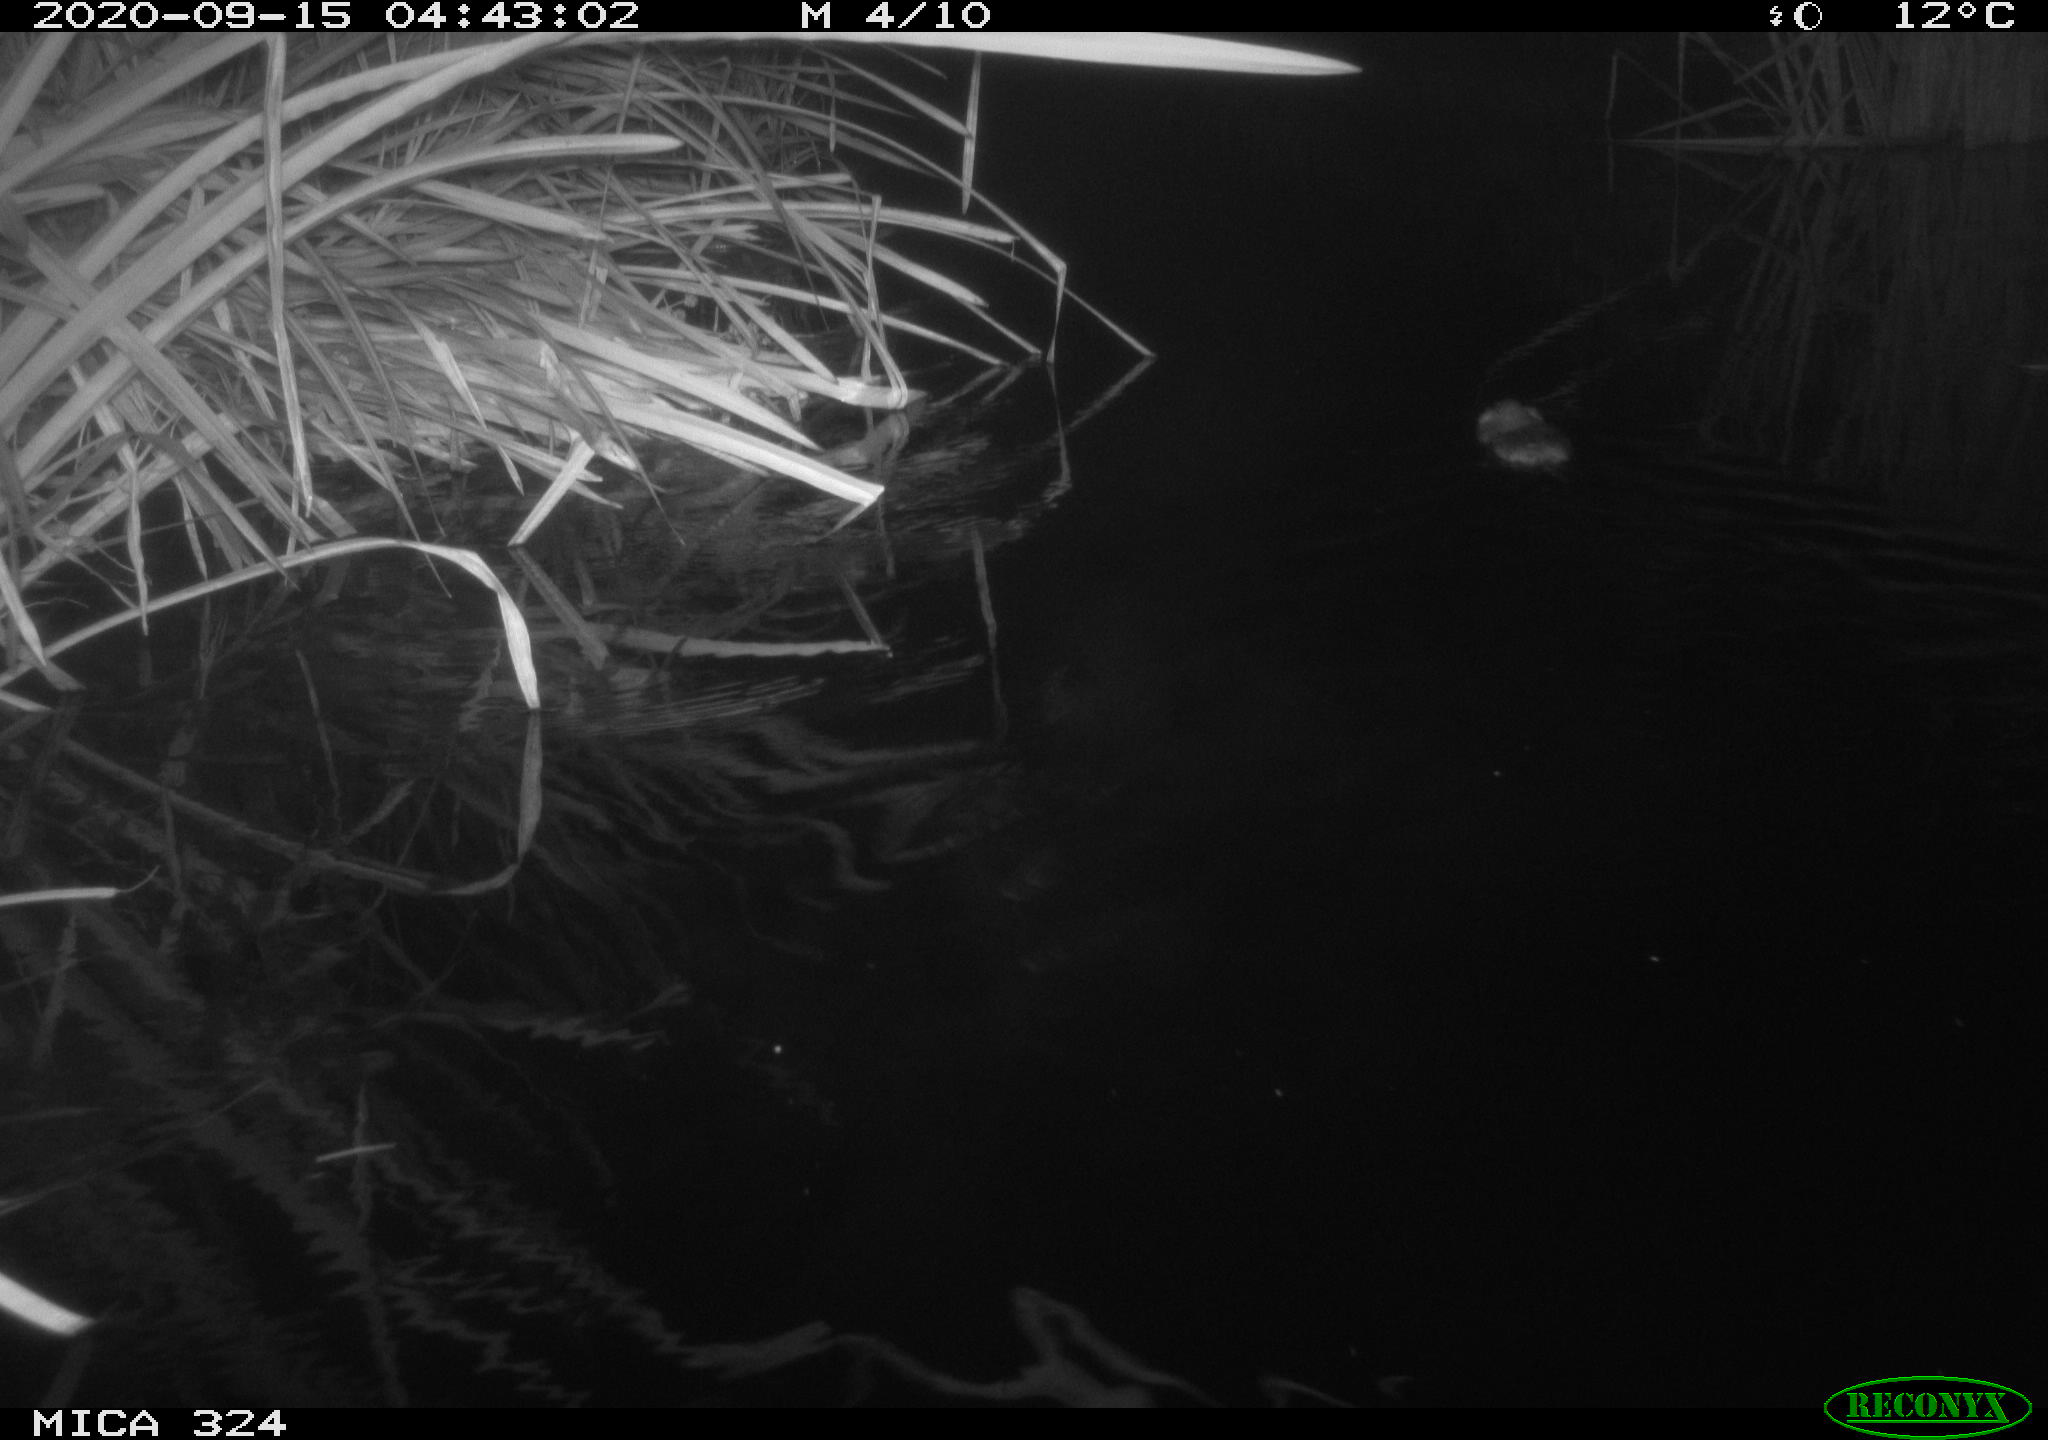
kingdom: Animalia
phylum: Chordata
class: Mammalia
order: Rodentia
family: Cricetidae
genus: Ondatra
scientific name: Ondatra zibethicus
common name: Muskrat
